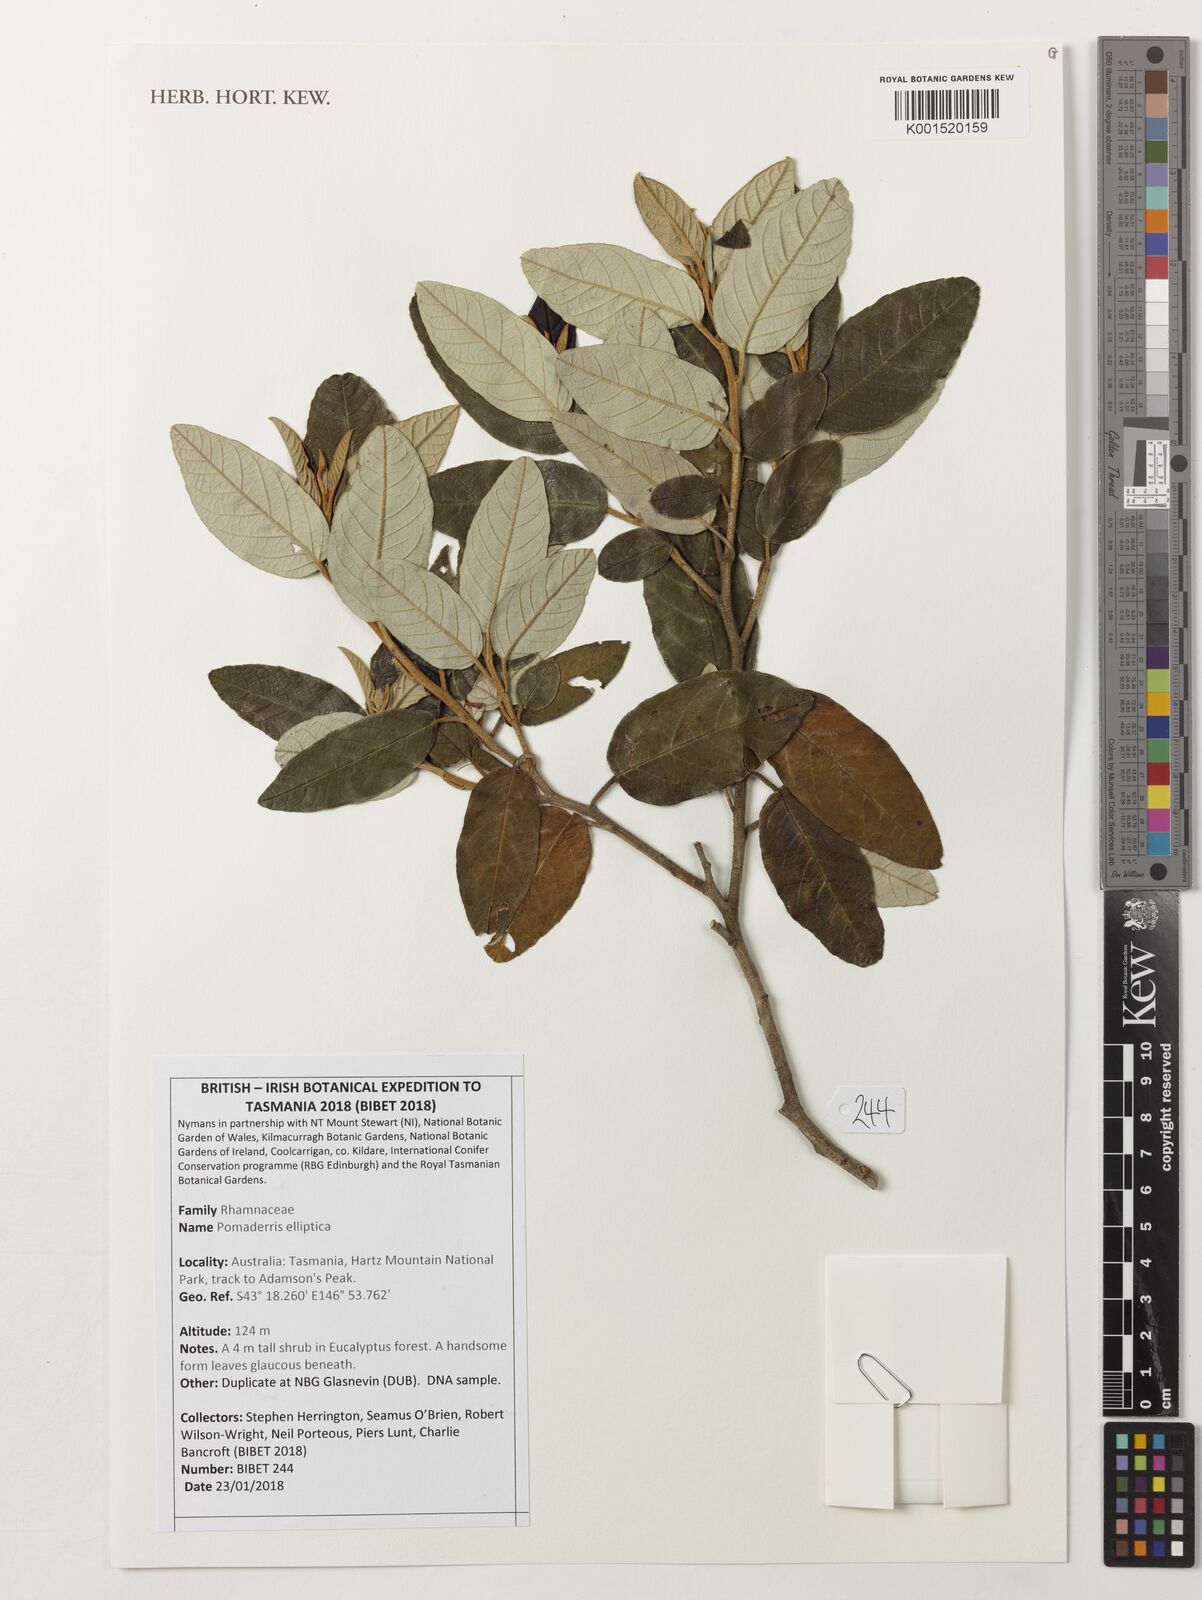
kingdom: Plantae
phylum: Tracheophyta
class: Magnoliopsida
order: Rosales
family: Rhamnaceae
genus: Pomaderris
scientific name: Pomaderris elliptica
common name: Yellow-dogwood
